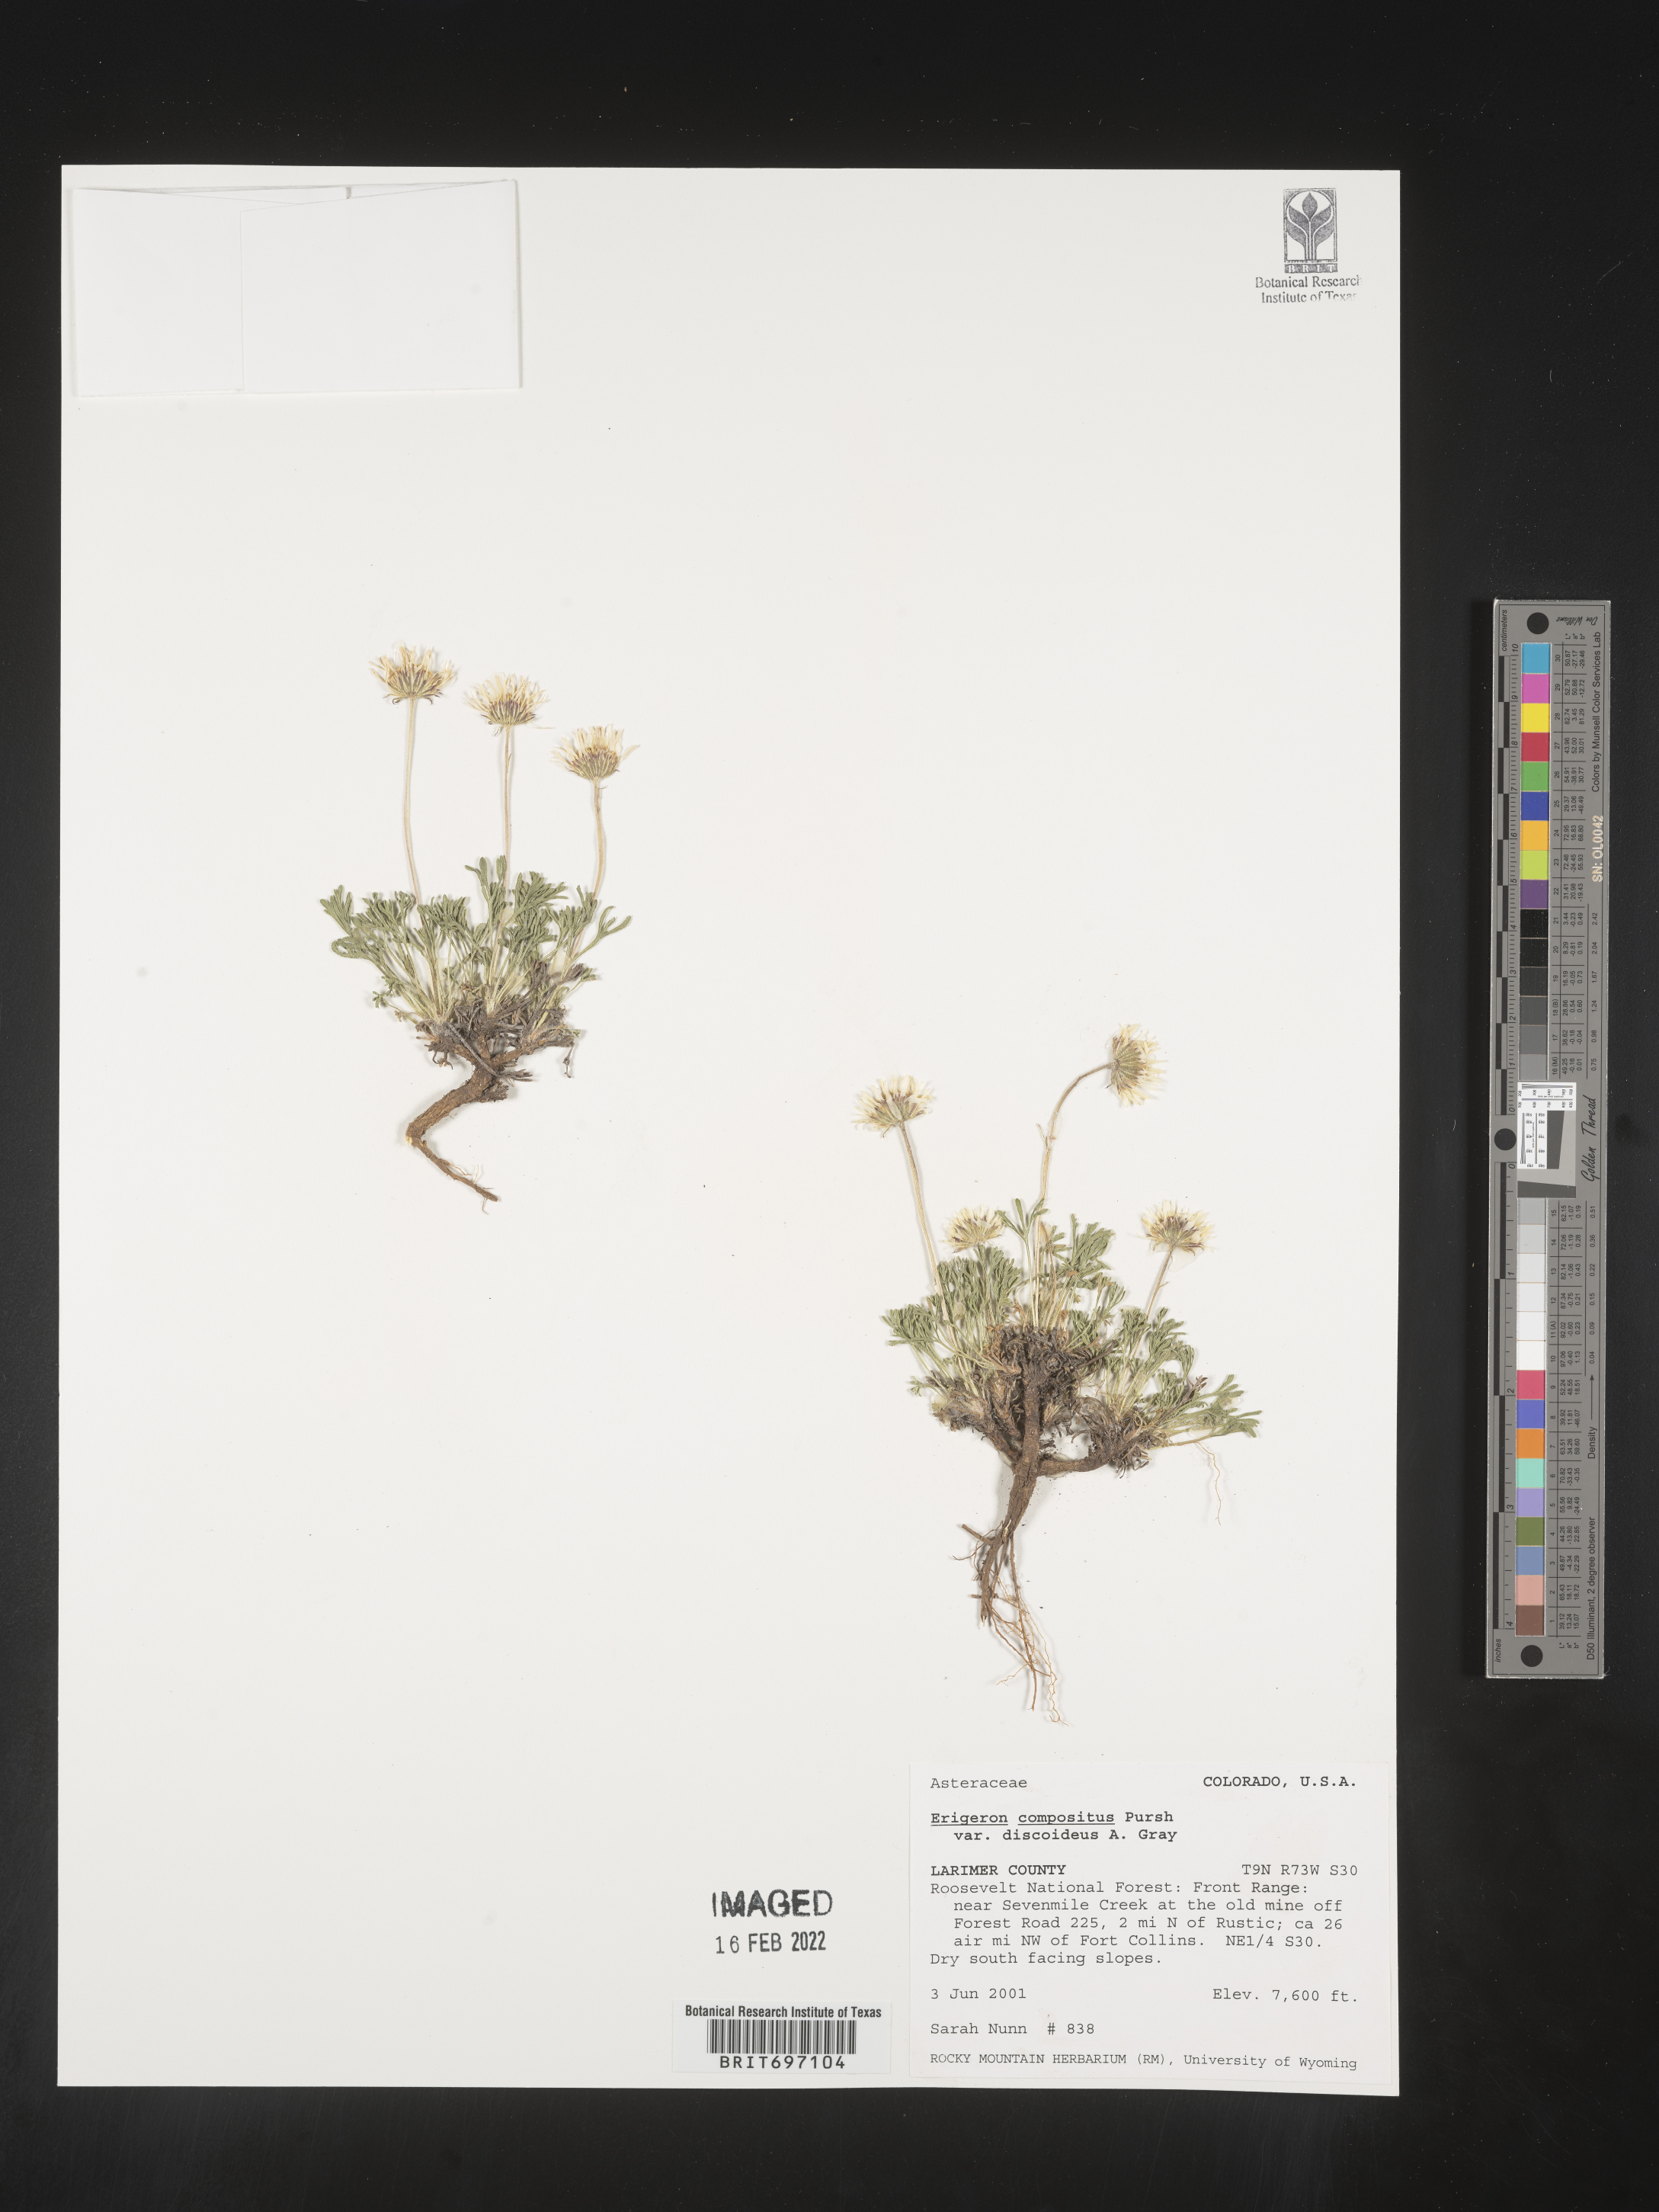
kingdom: Plantae
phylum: Tracheophyta
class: Magnoliopsida
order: Asterales
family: Asteraceae
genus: Erigeron
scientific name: Erigeron compositus
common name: Dwarf mountain fleabane
